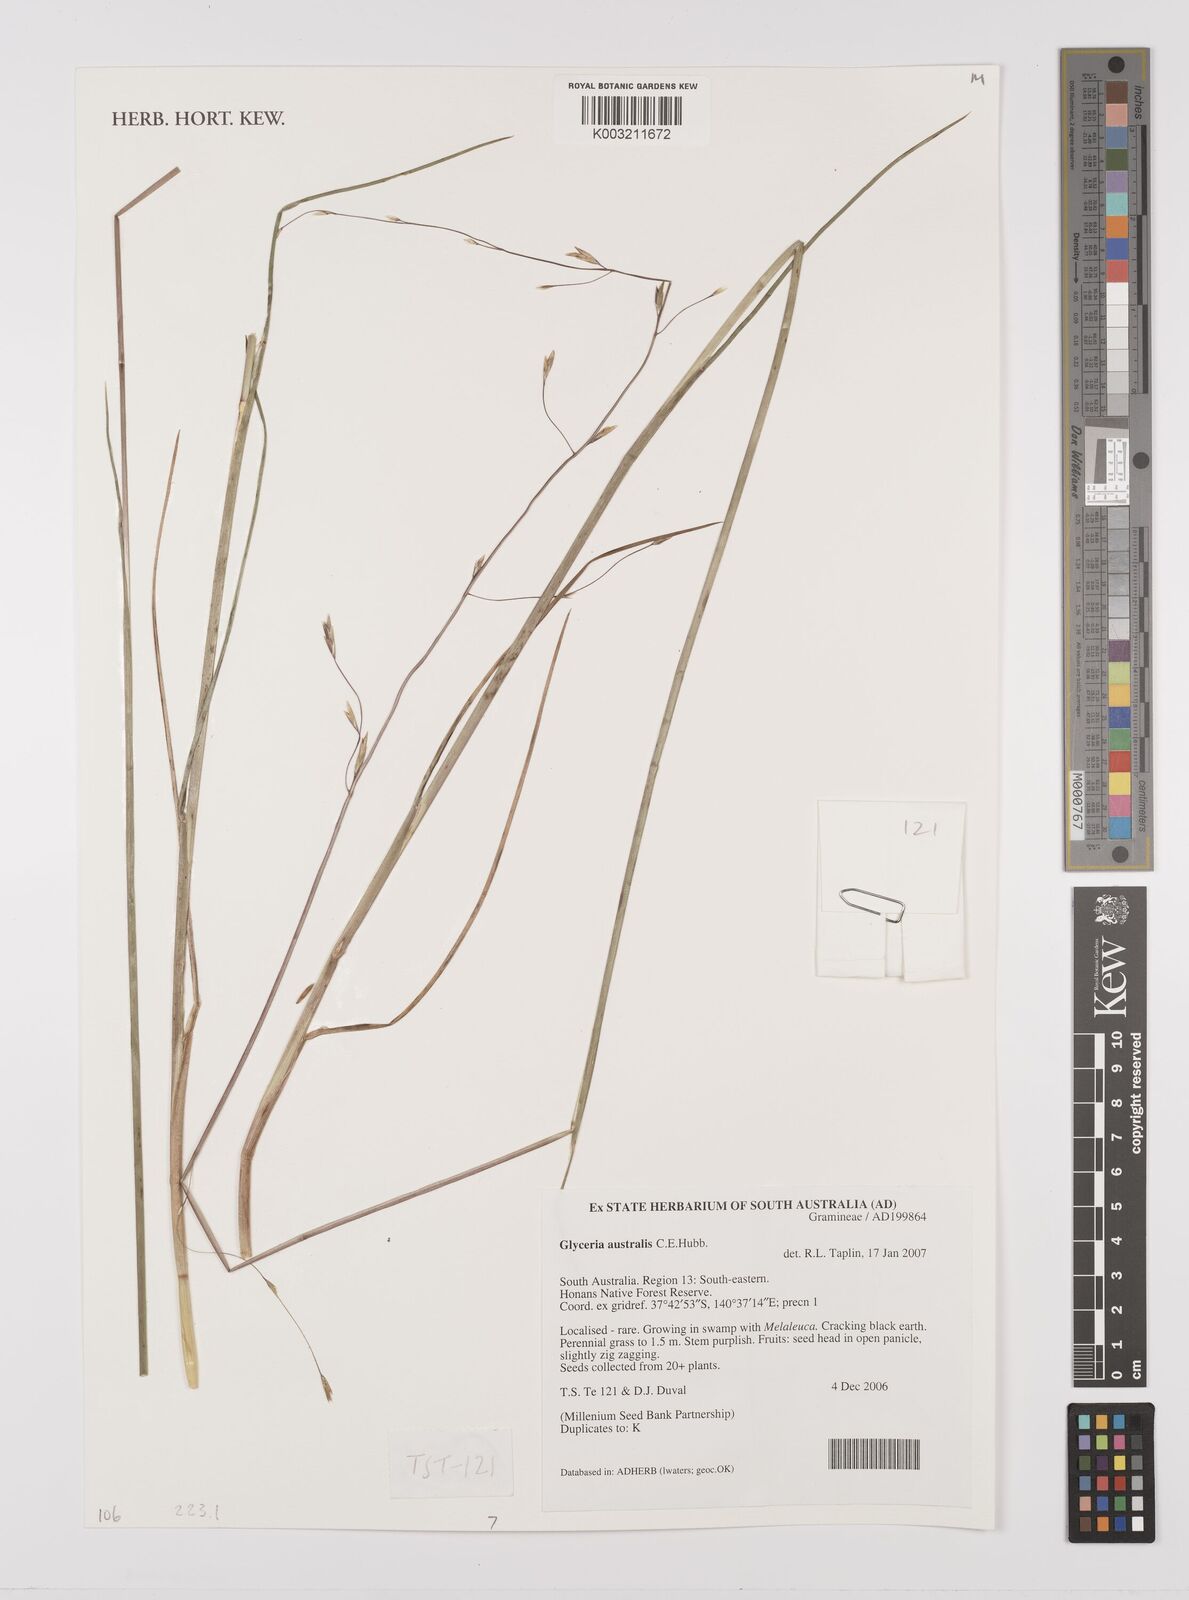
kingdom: Plantae
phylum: Tracheophyta
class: Liliopsida
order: Poales
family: Poaceae
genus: Glyceria
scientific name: Glyceria australis
